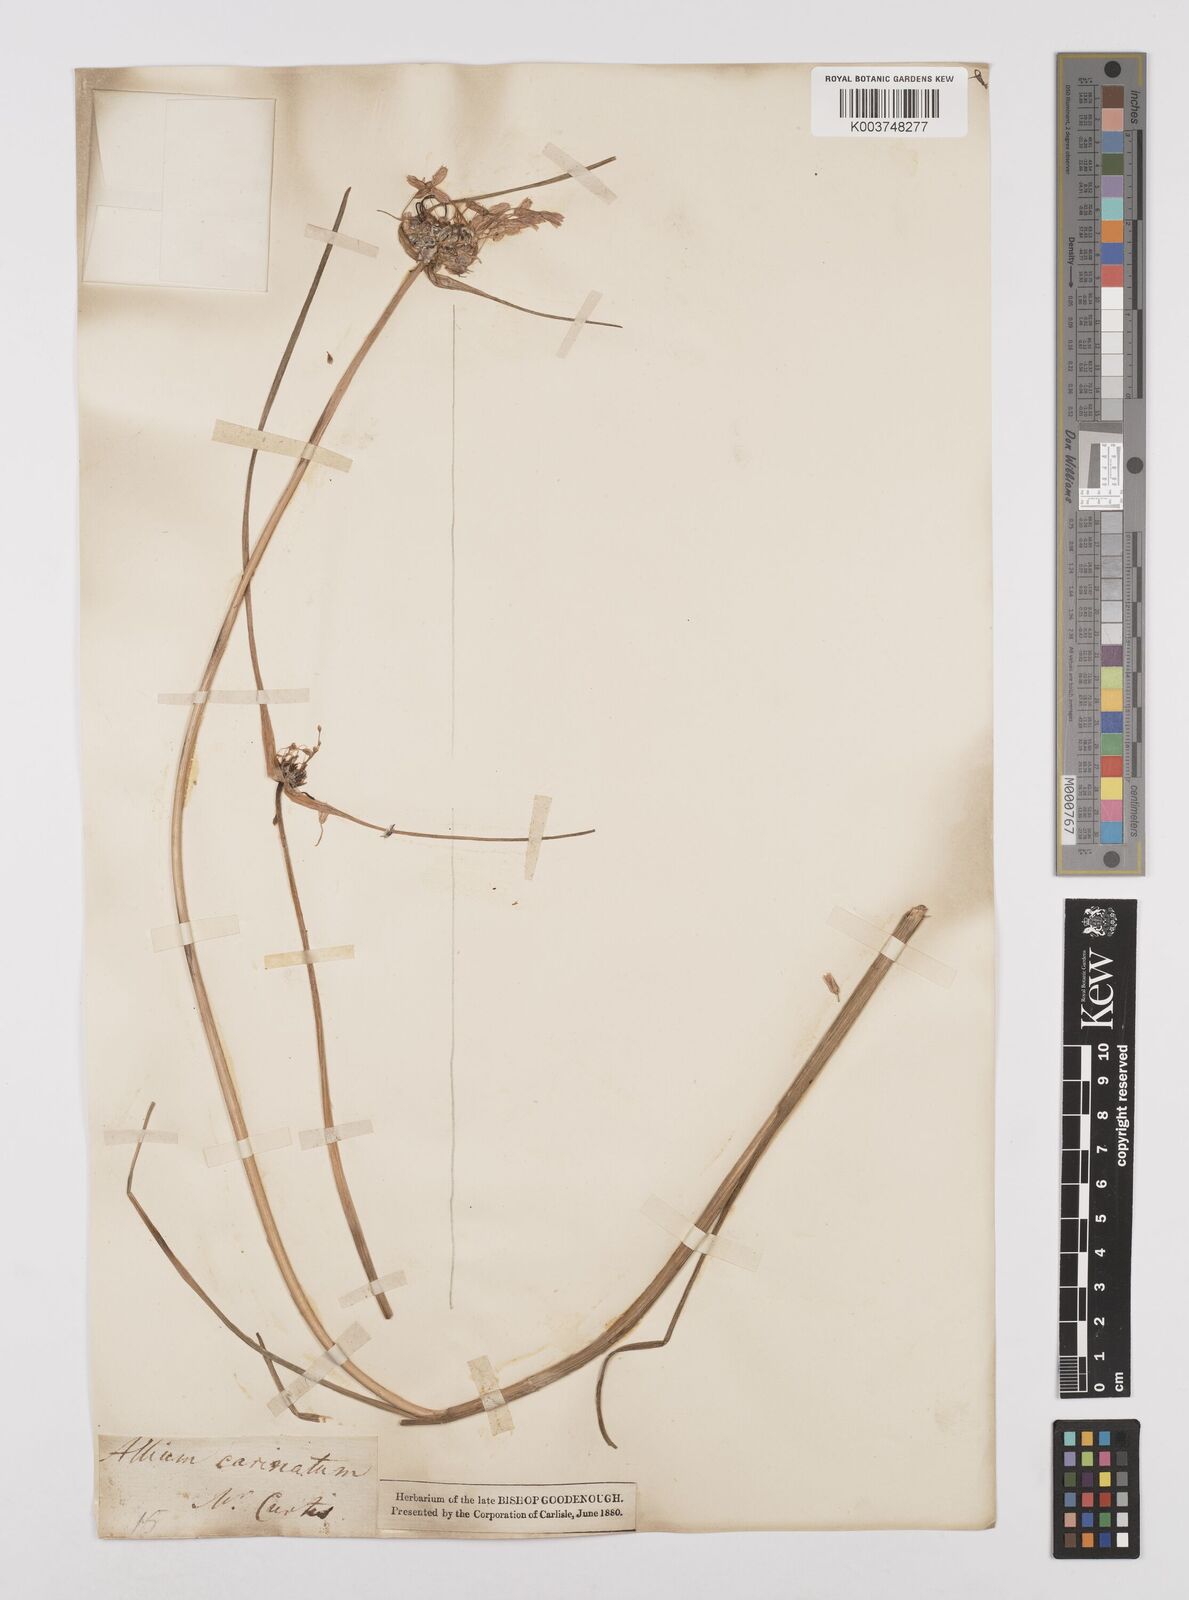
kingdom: Plantae
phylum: Tracheophyta
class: Liliopsida
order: Asparagales
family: Amaryllidaceae
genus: Allium
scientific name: Allium carinatum
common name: Keeled garlic
